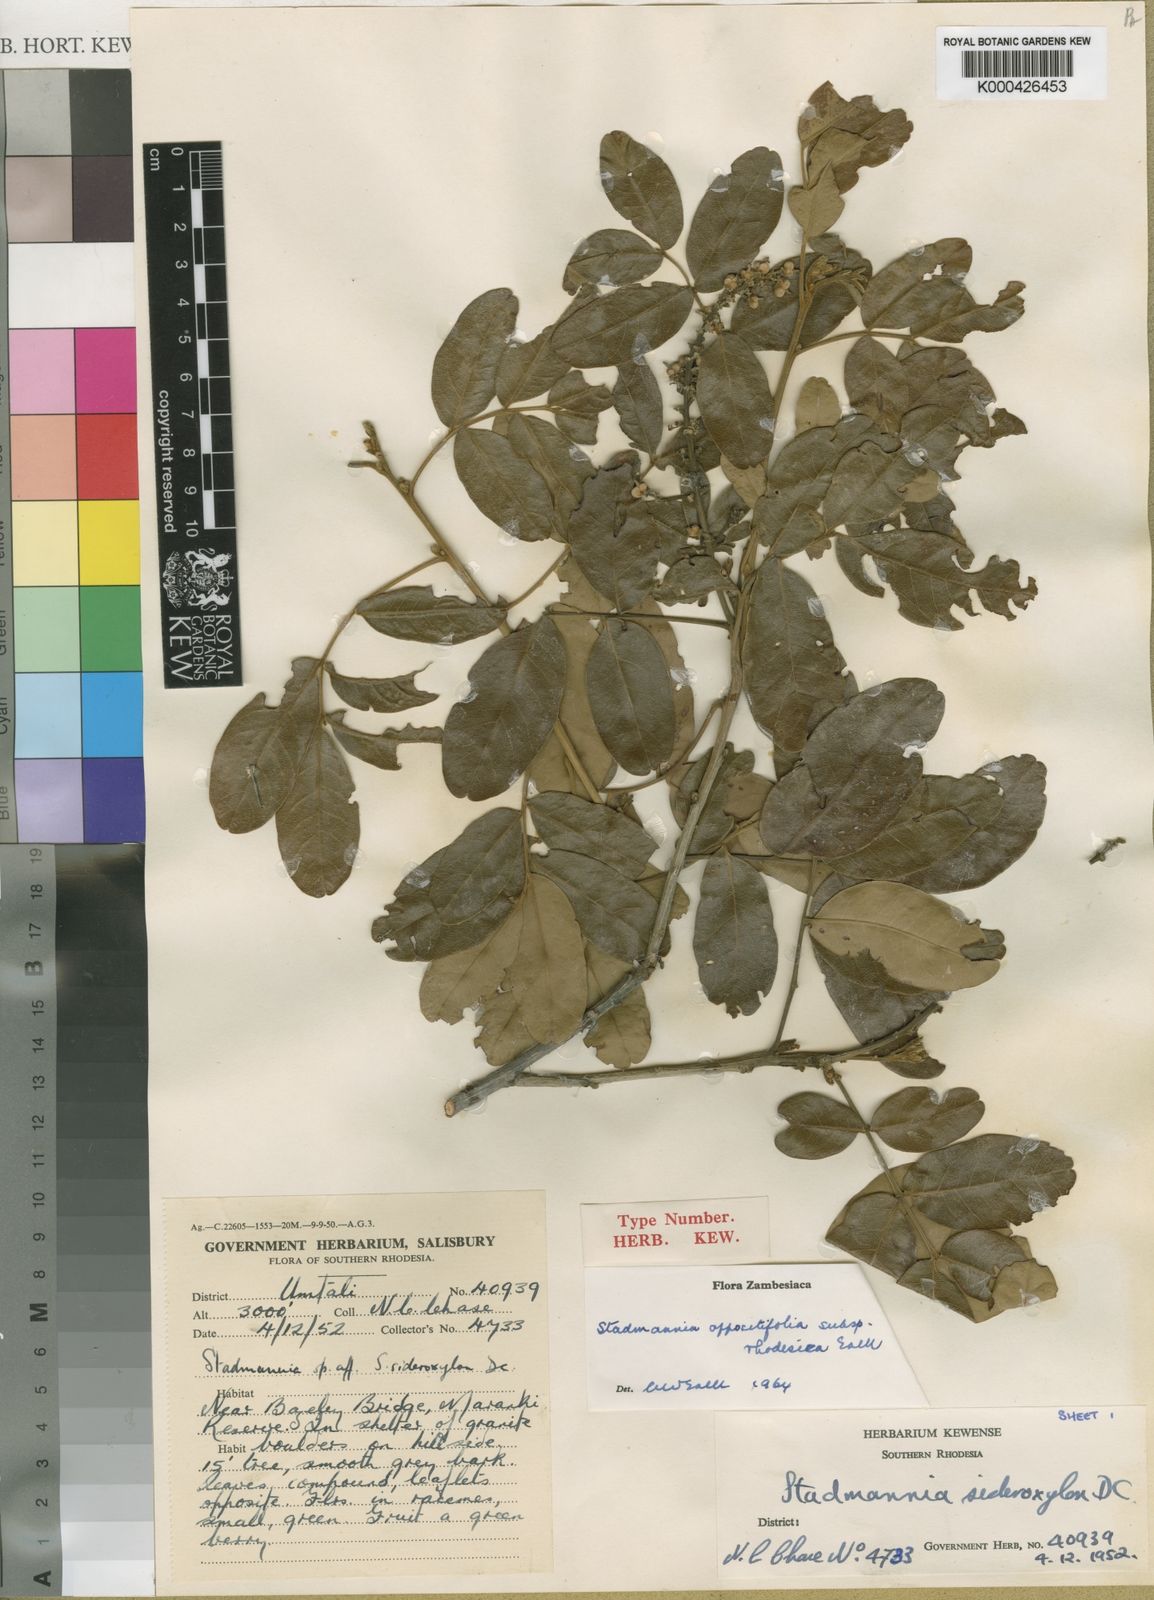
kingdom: Plantae
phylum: Tracheophyta
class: Magnoliopsida
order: Sapindales
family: Sapindaceae
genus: Stadmannia
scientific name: Stadmannia oppositifolia
